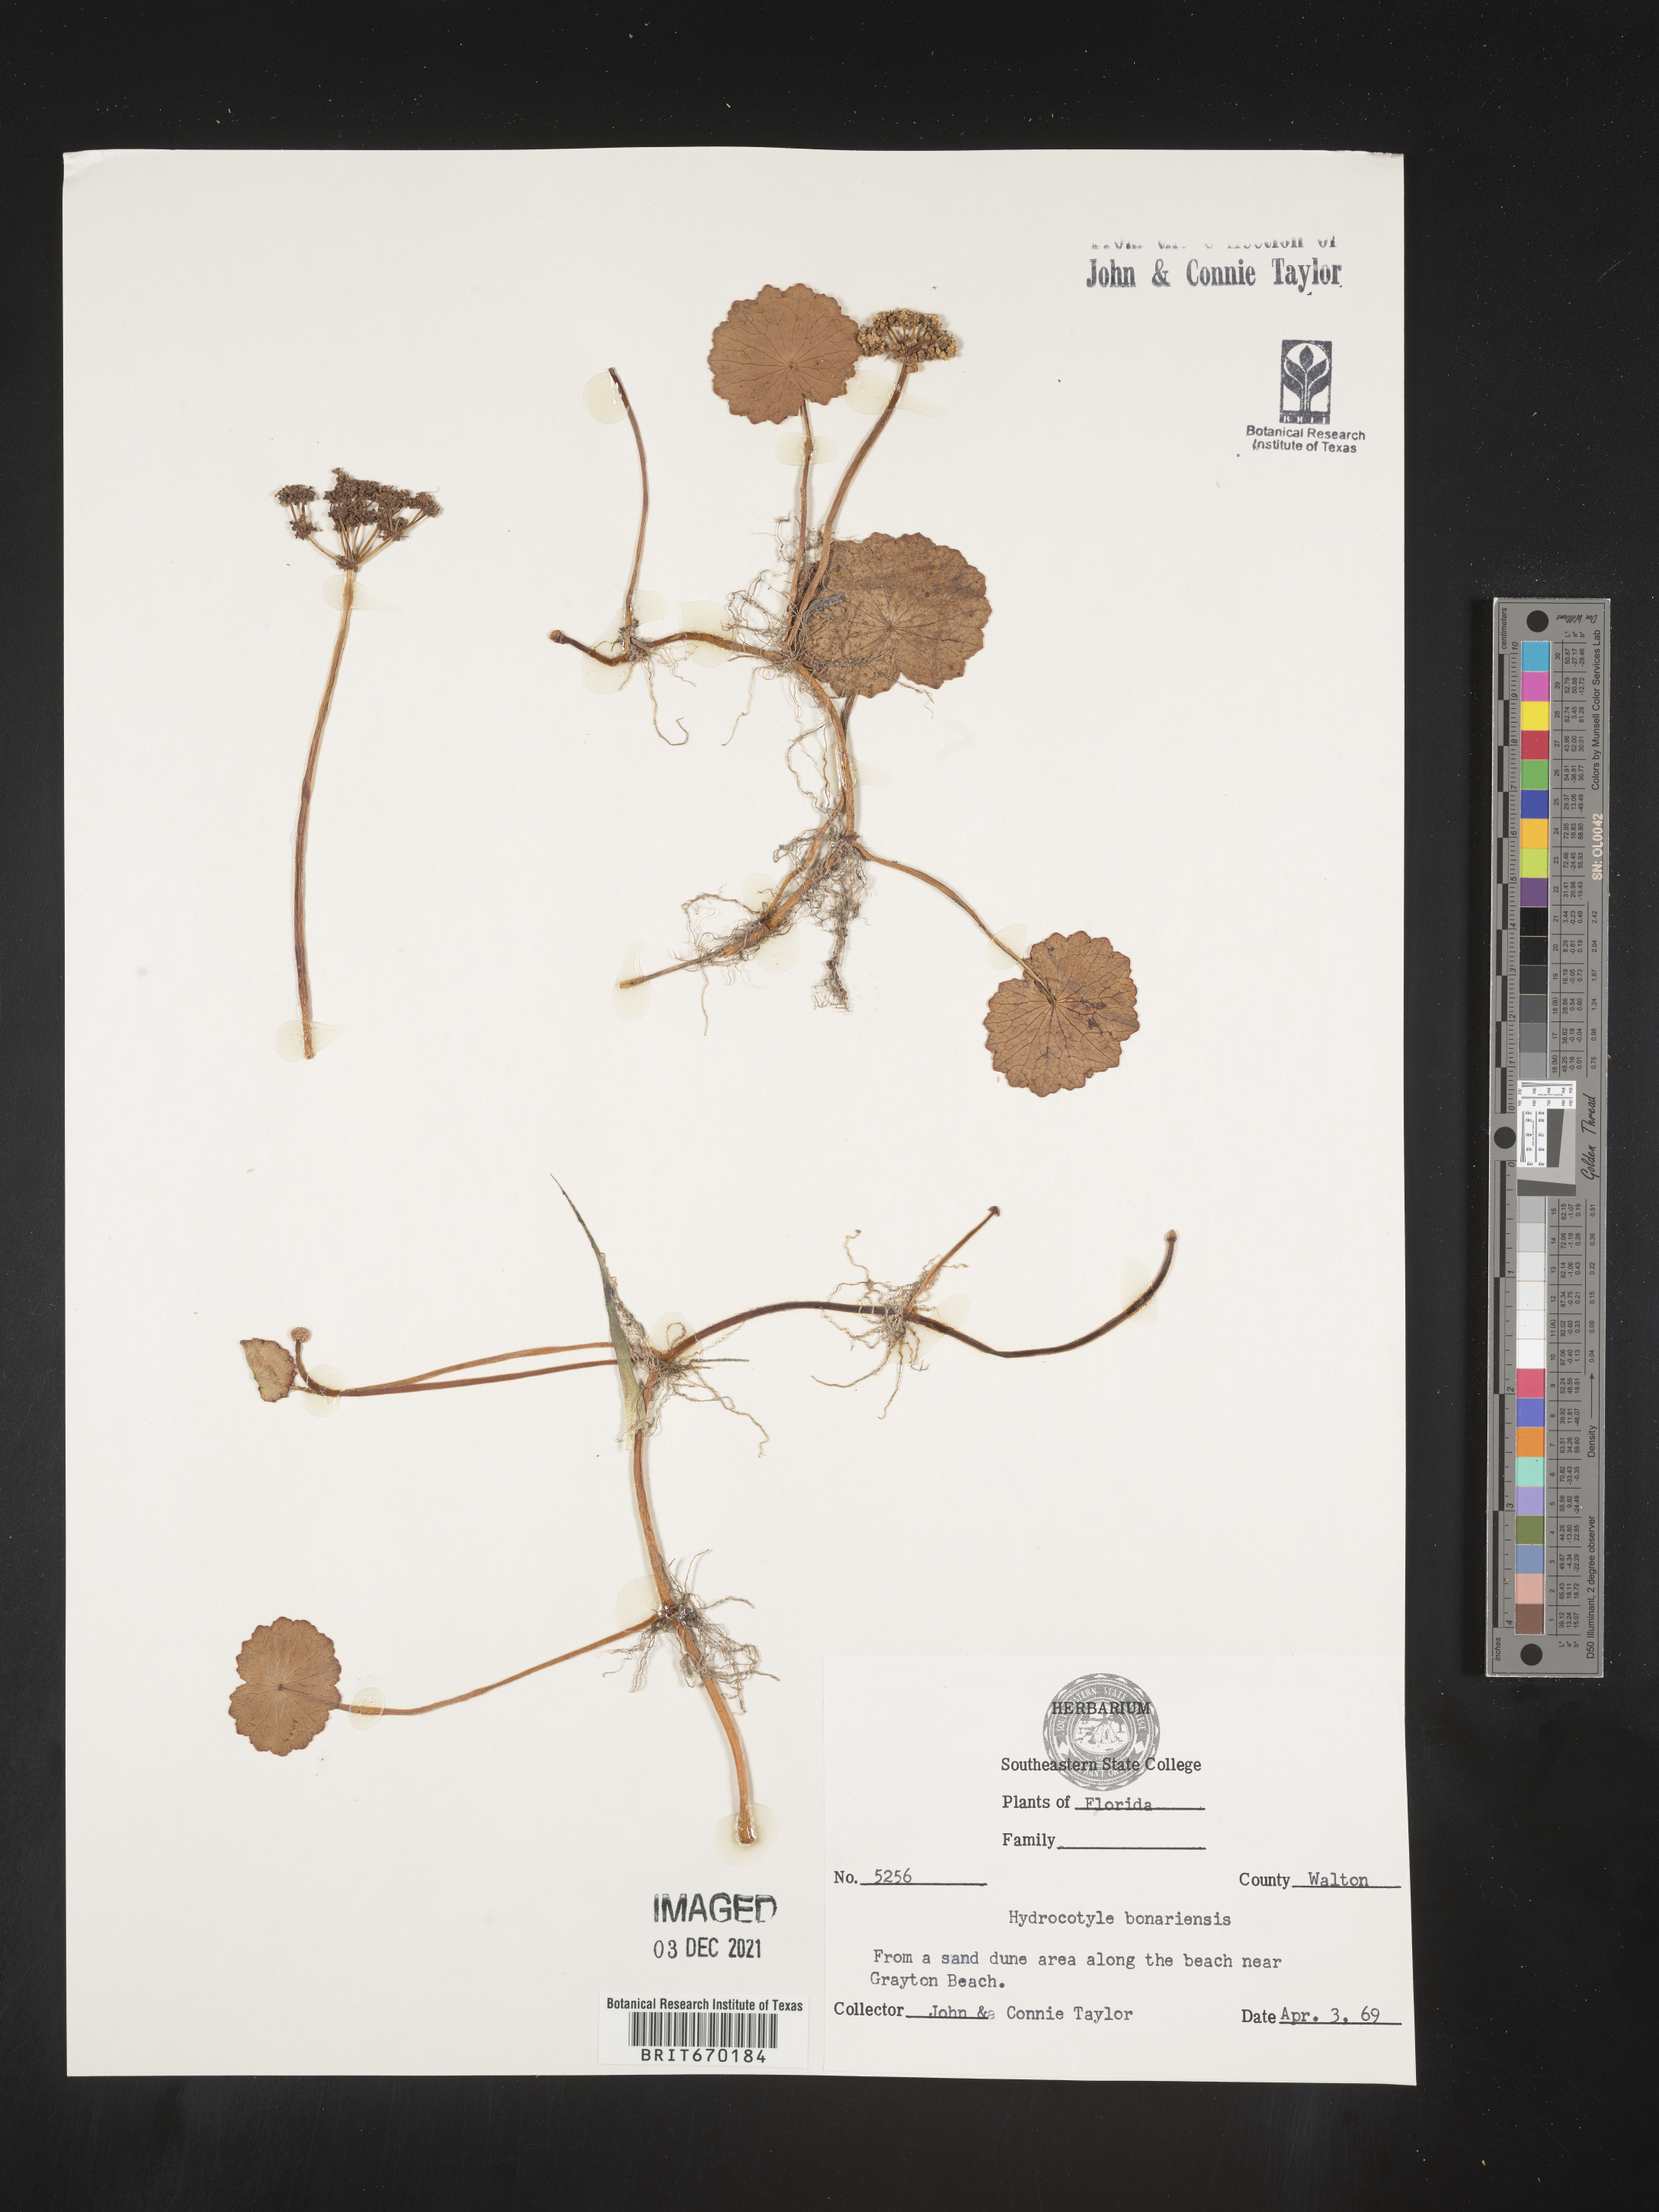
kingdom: Plantae
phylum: Tracheophyta
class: Magnoliopsida
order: Apiales
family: Araliaceae
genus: Hydrocotyle
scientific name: Hydrocotyle bonariensis
